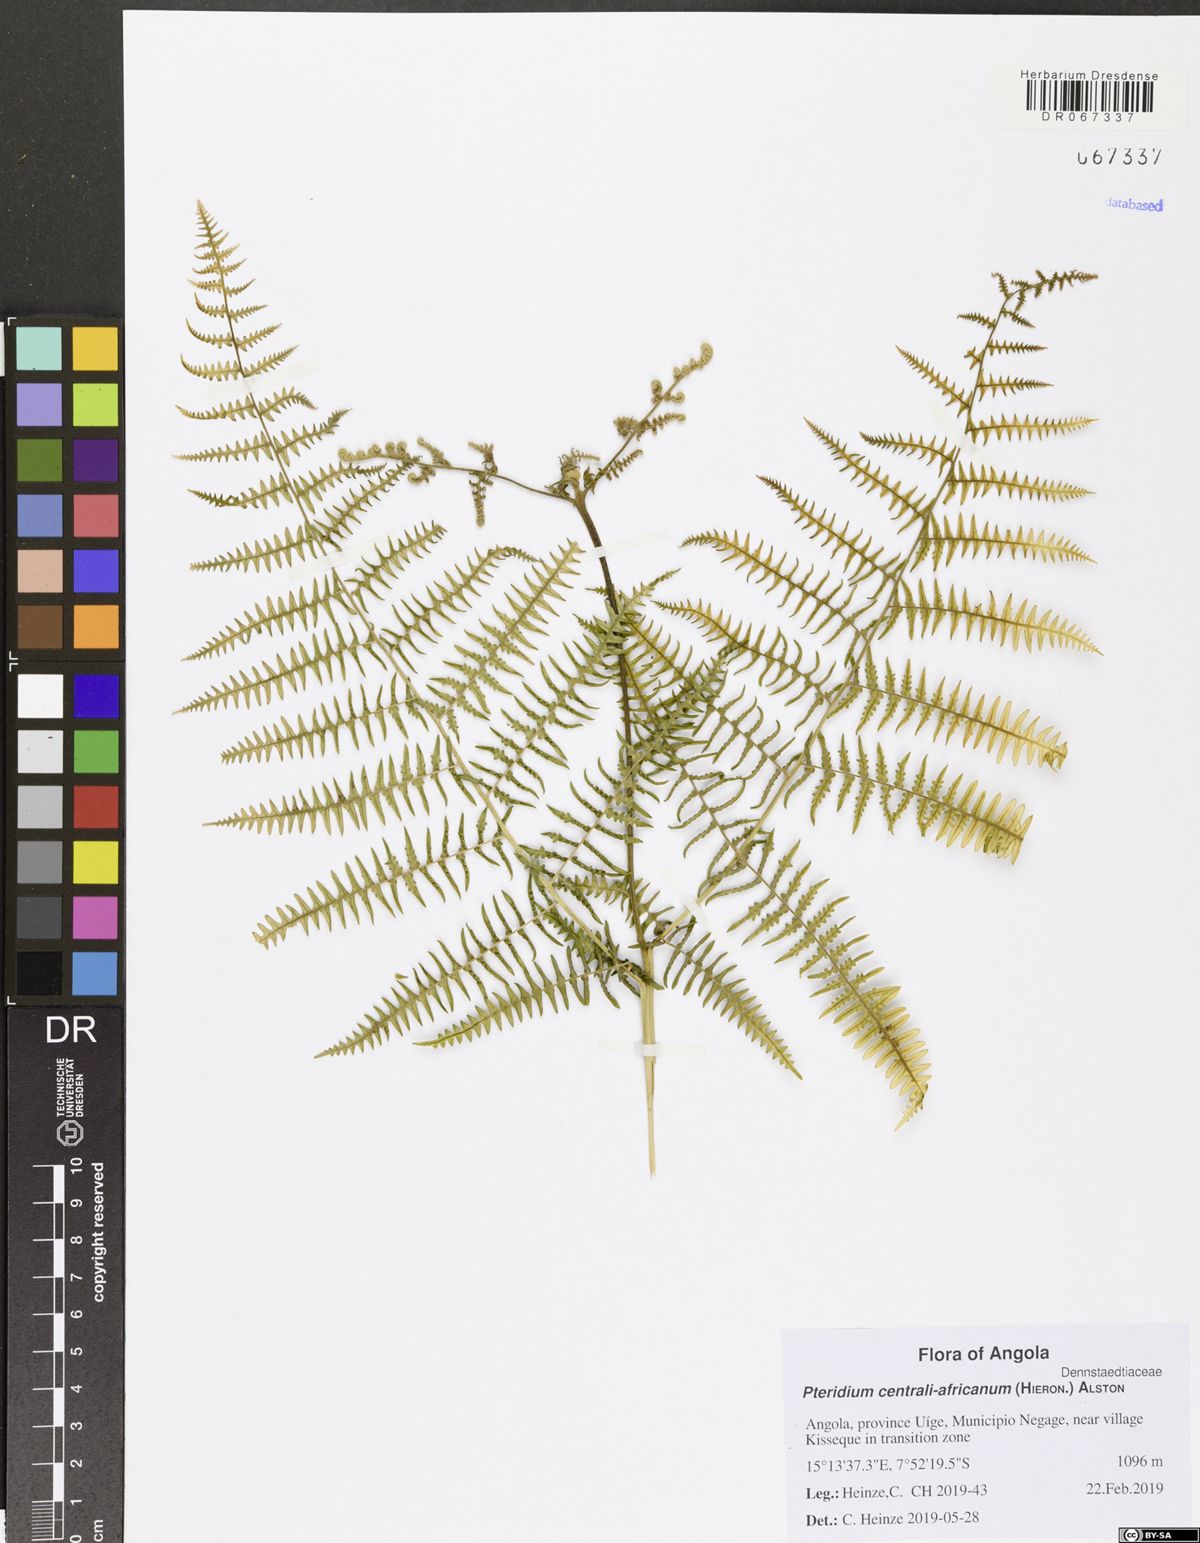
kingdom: Plantae
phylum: Tracheophyta
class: Polypodiopsida
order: Polypodiales
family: Dennstaedtiaceae
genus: Pteridium
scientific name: Pteridium aquilinum
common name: Bracken
